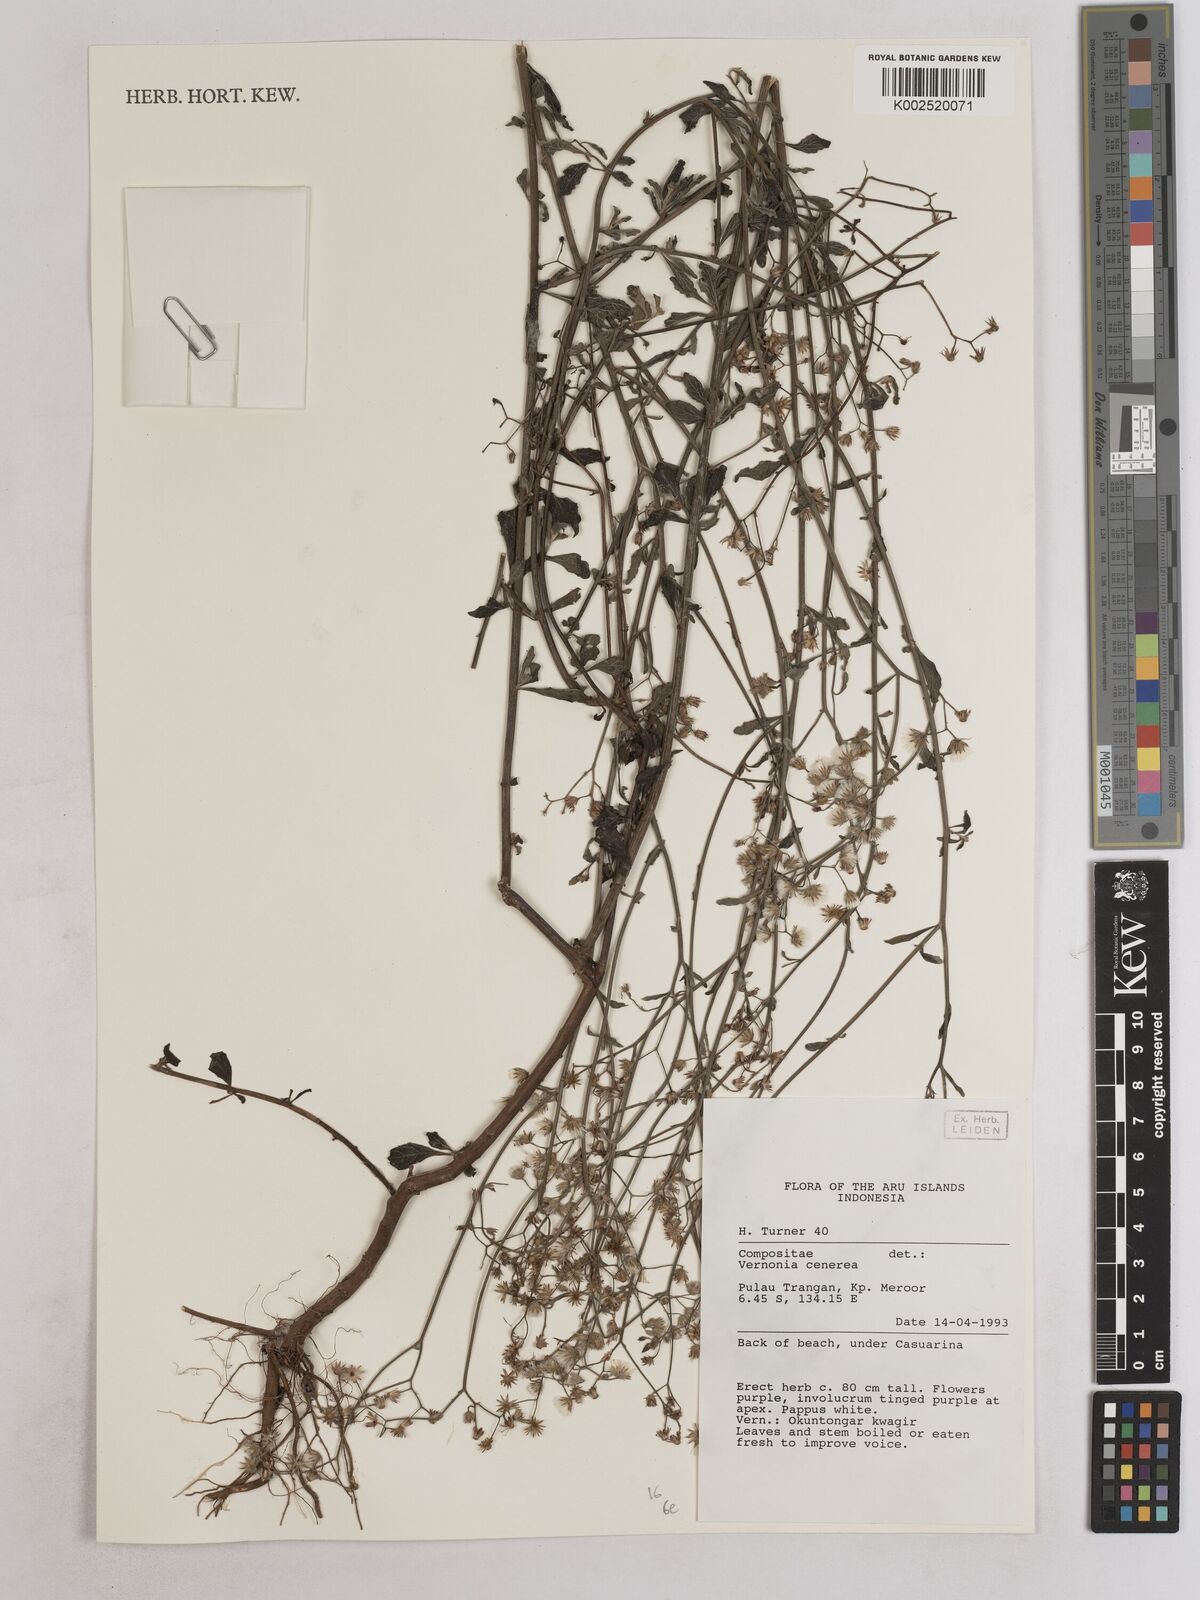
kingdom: Plantae
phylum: Tracheophyta
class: Magnoliopsida
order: Asterales
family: Asteraceae
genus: Cyanthillium
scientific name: Cyanthillium cinereum
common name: Little ironweed
